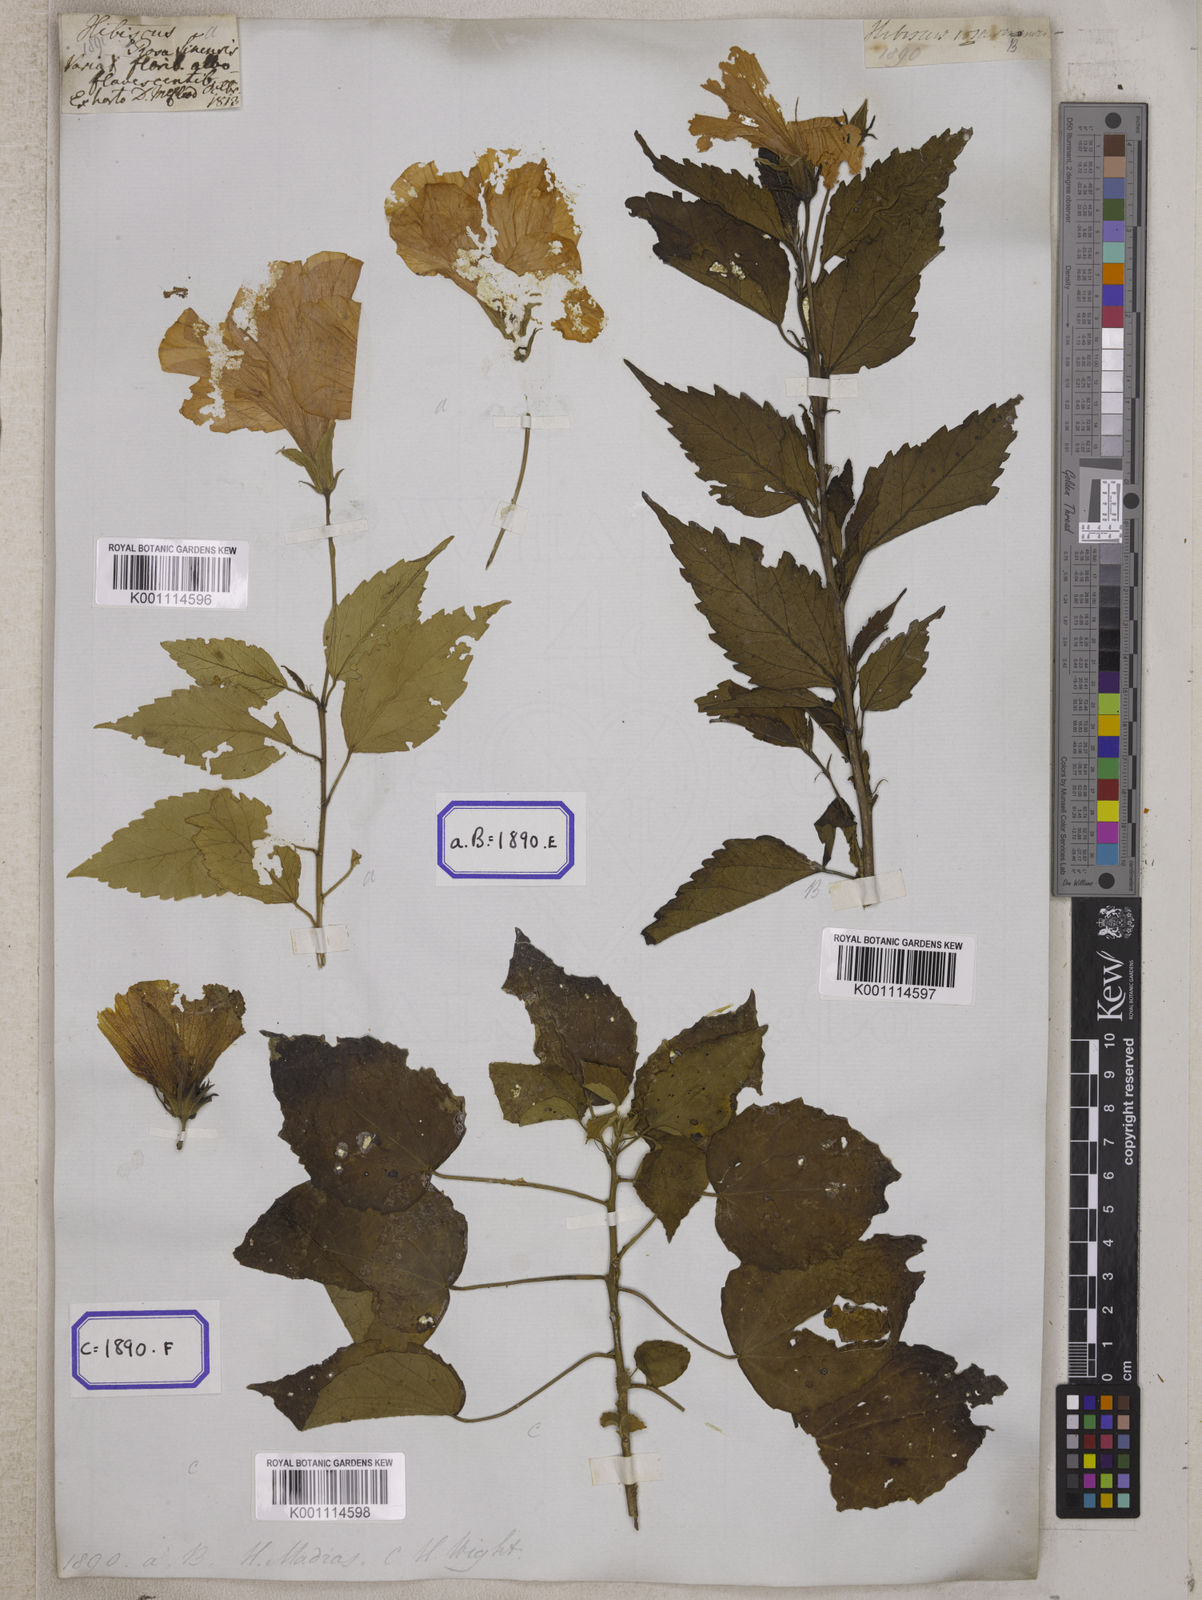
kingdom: Plantae
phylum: Tracheophyta
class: Magnoliopsida
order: Malvales
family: Malvaceae
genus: Hibiscus
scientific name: Hibiscus rosa-sinensis
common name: Hibiscus
